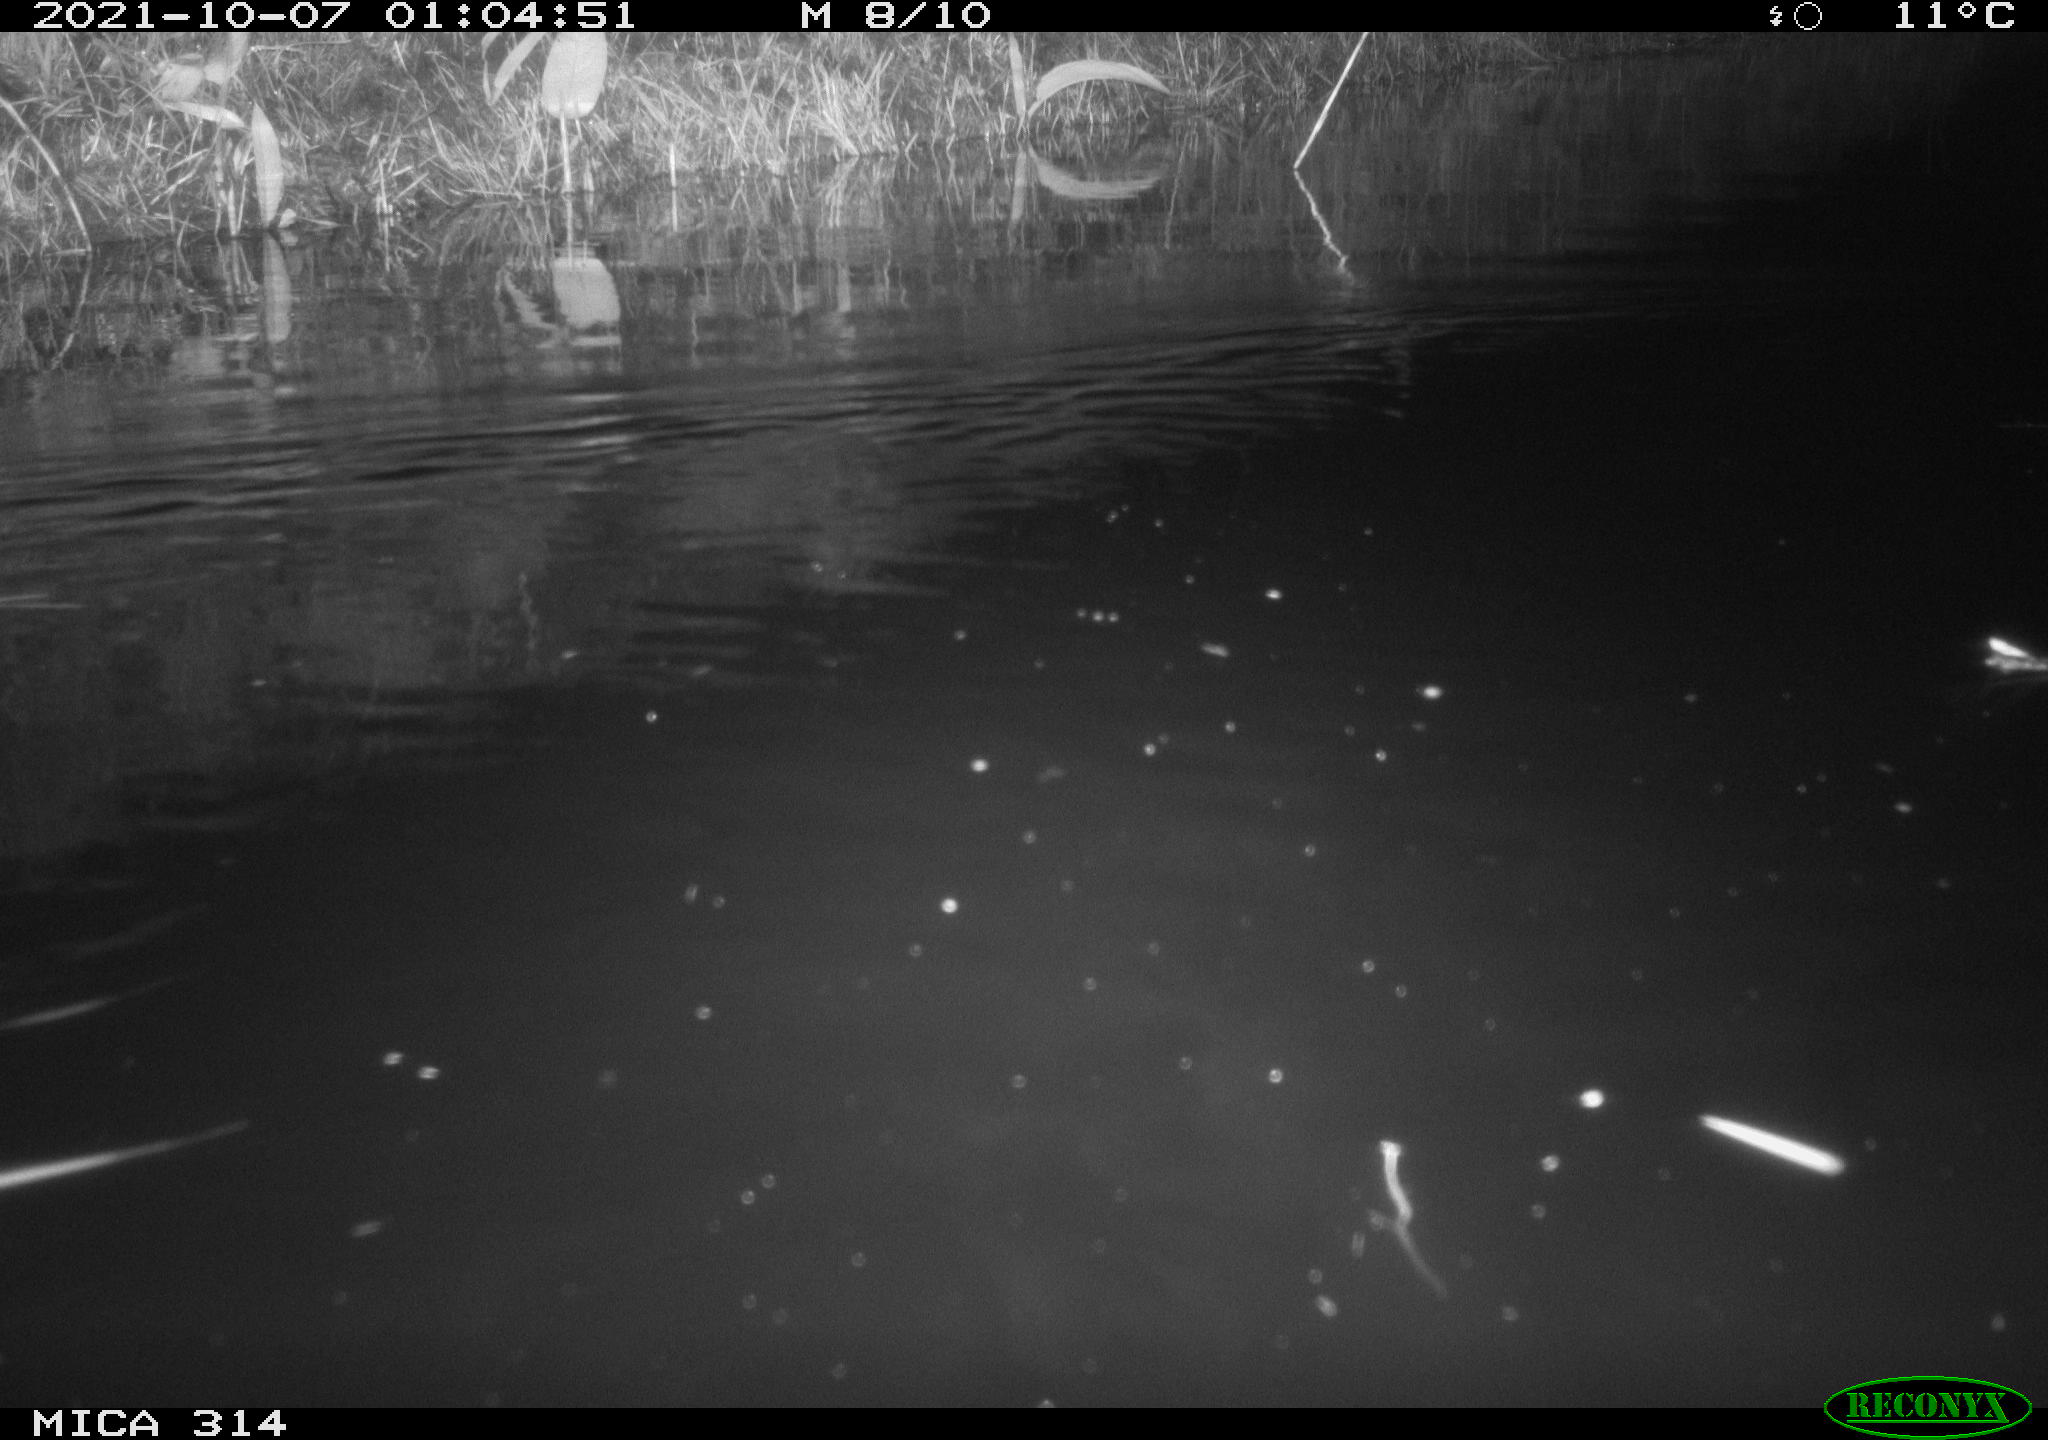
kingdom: Animalia
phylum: Chordata
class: Mammalia
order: Rodentia
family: Muridae
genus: Rattus
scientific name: Rattus norvegicus
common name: Brown rat
